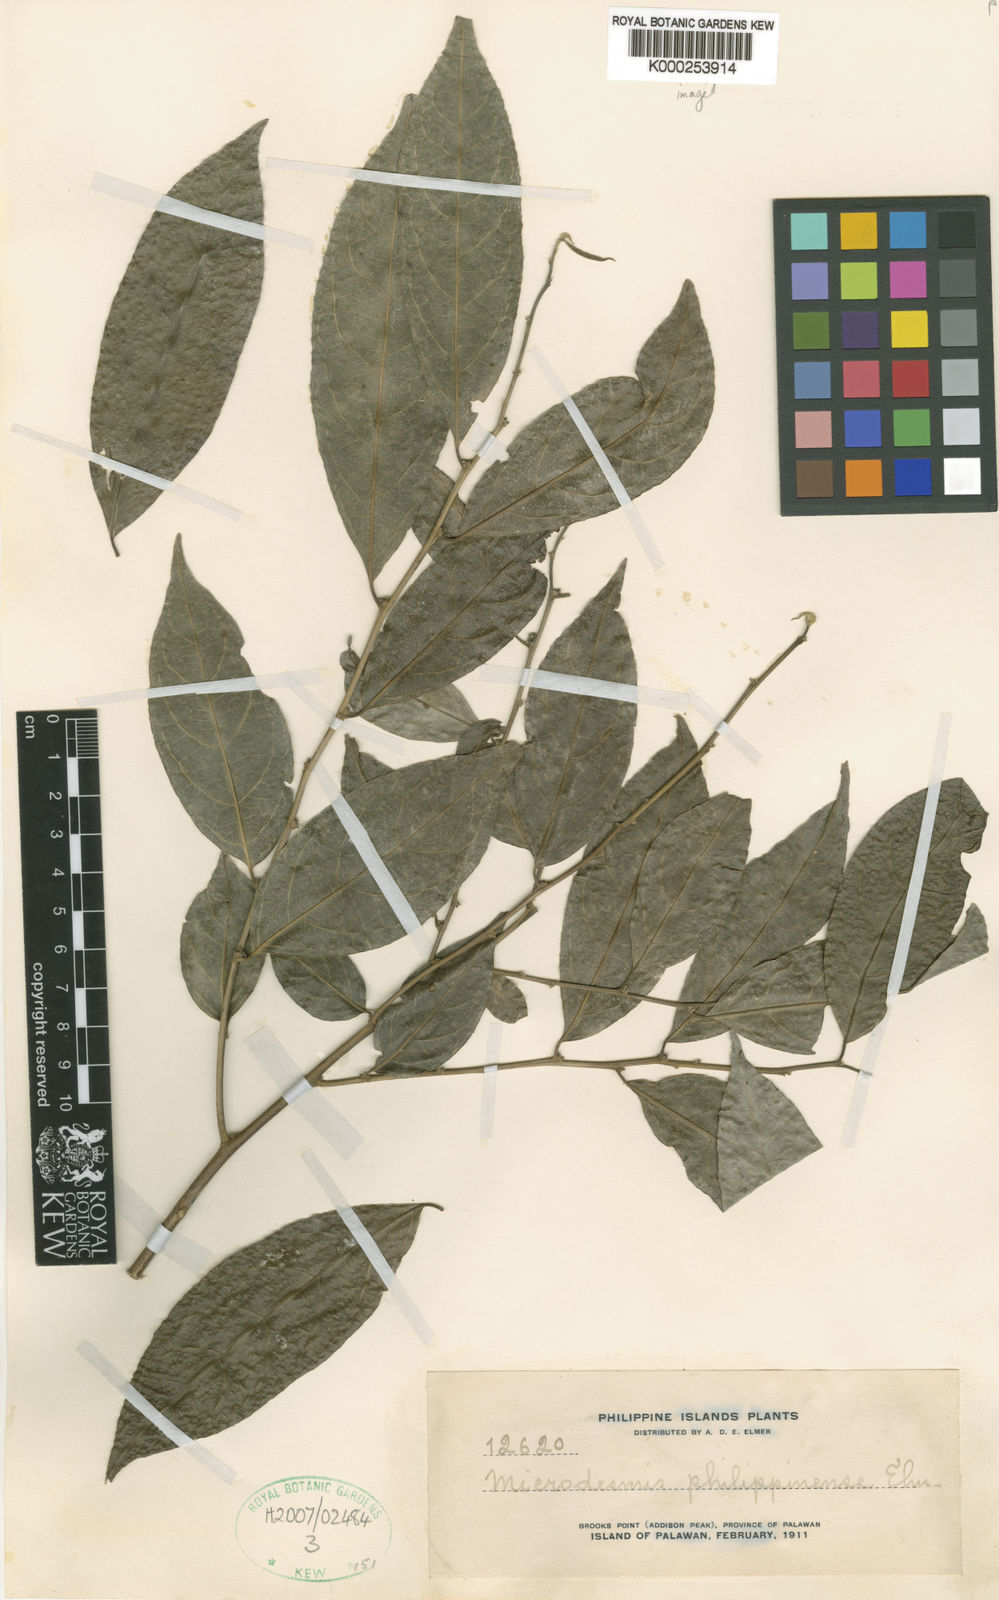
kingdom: Plantae
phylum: Tracheophyta
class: Magnoliopsida
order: Malpighiales
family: Pandaceae
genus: Microdesmis
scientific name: Microdesmis
